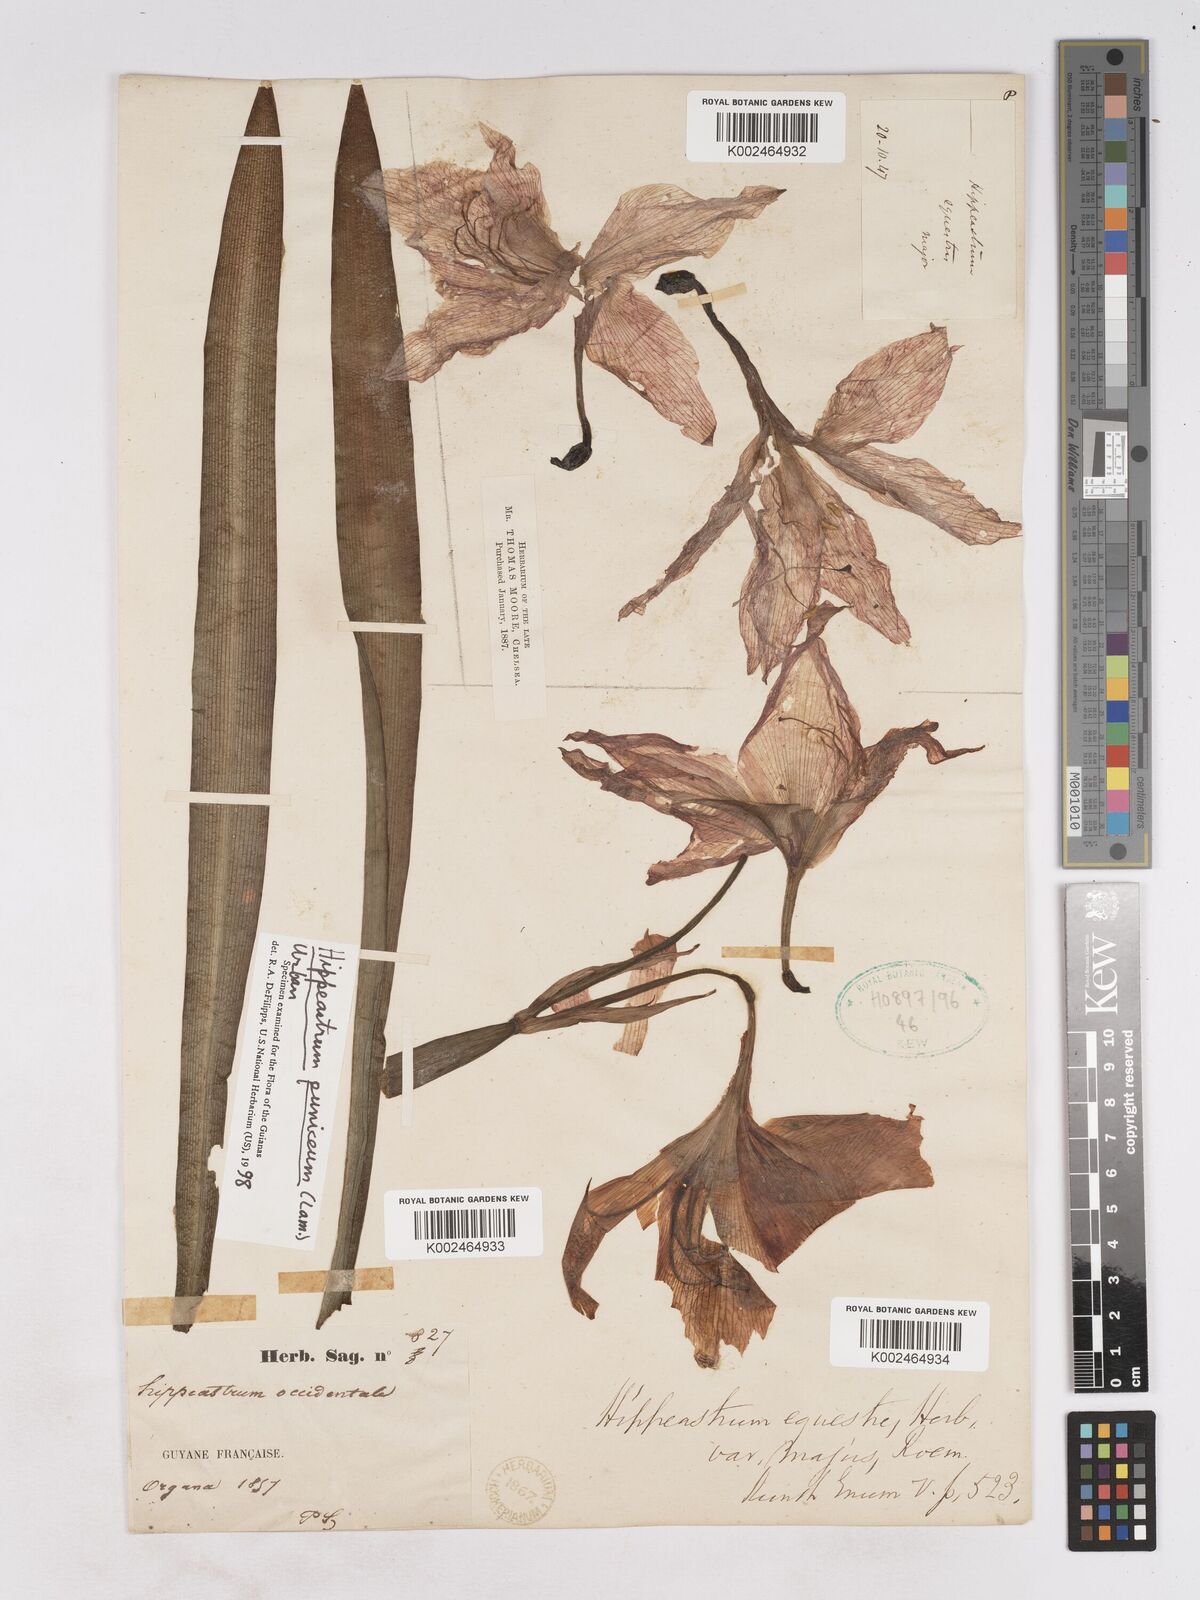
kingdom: Plantae
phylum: Tracheophyta
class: Liliopsida
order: Asparagales
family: Amaryllidaceae
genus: Hippeastrum
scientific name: Hippeastrum puniceum
